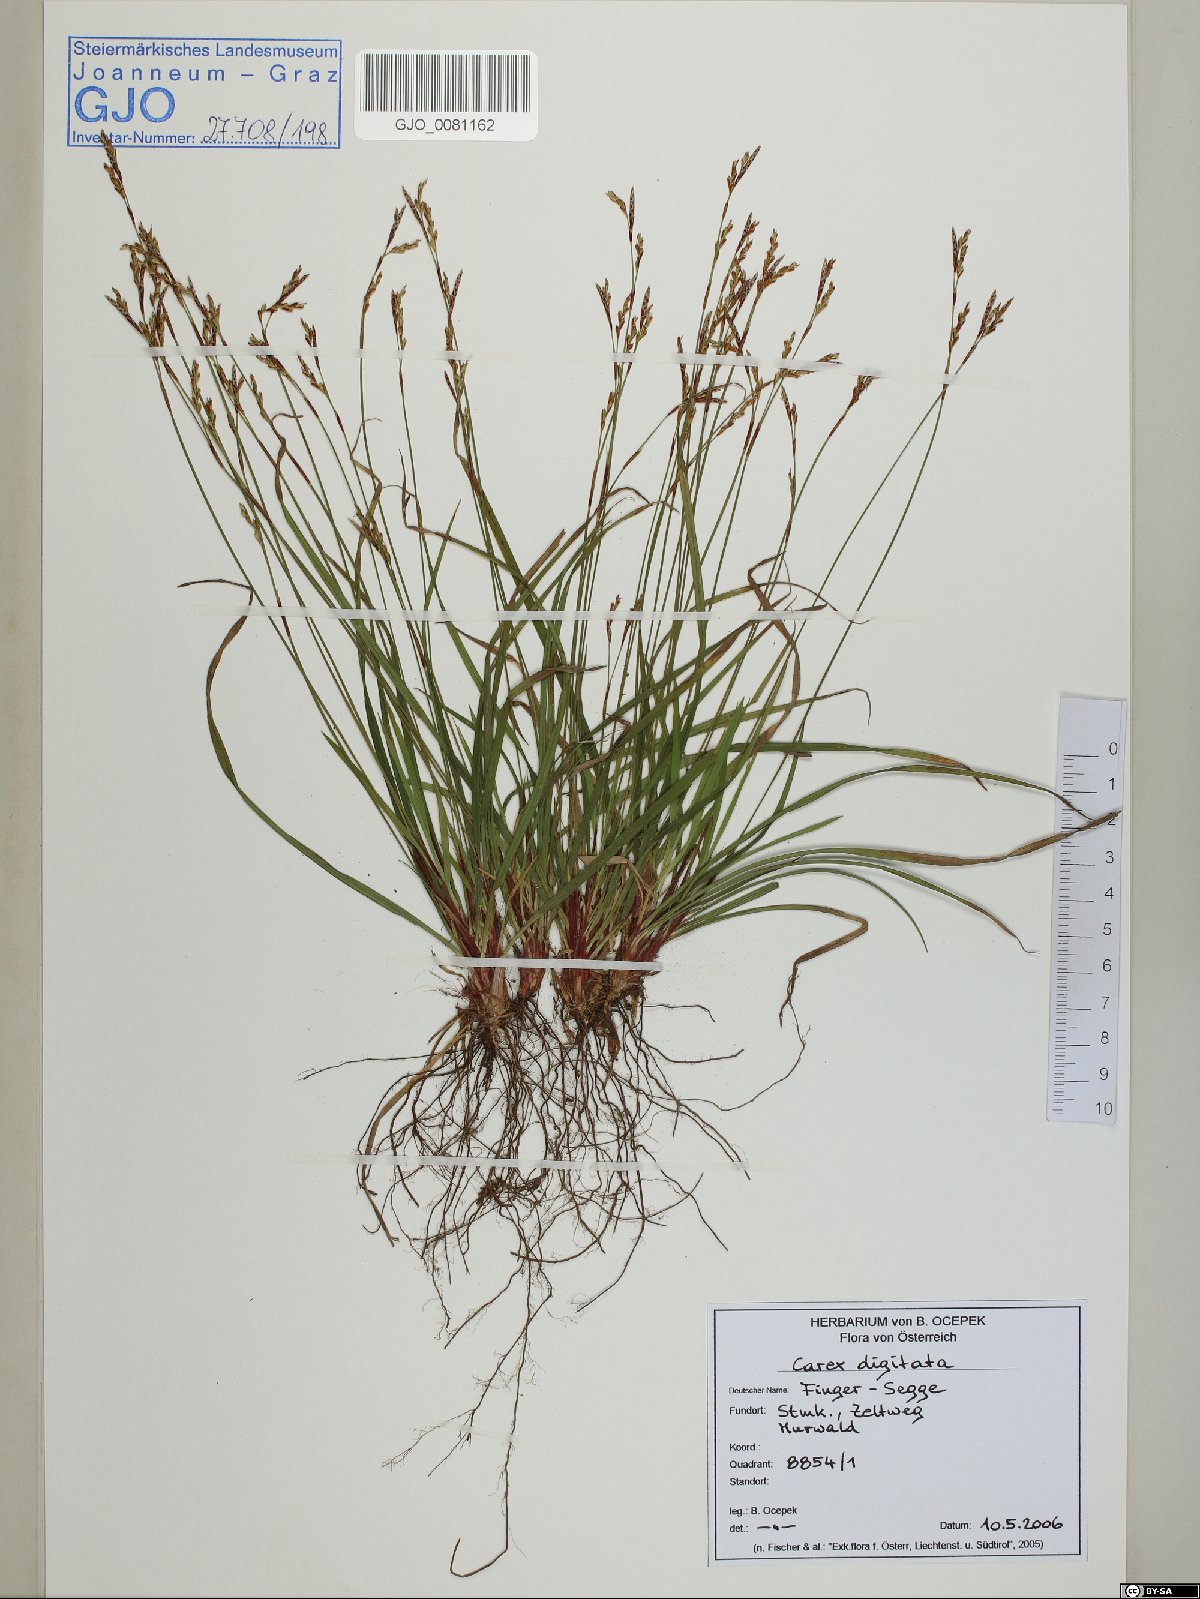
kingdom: Plantae
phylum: Tracheophyta
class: Liliopsida
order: Poales
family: Cyperaceae
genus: Carex
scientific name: Carex digitata
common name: Fingered sedge
